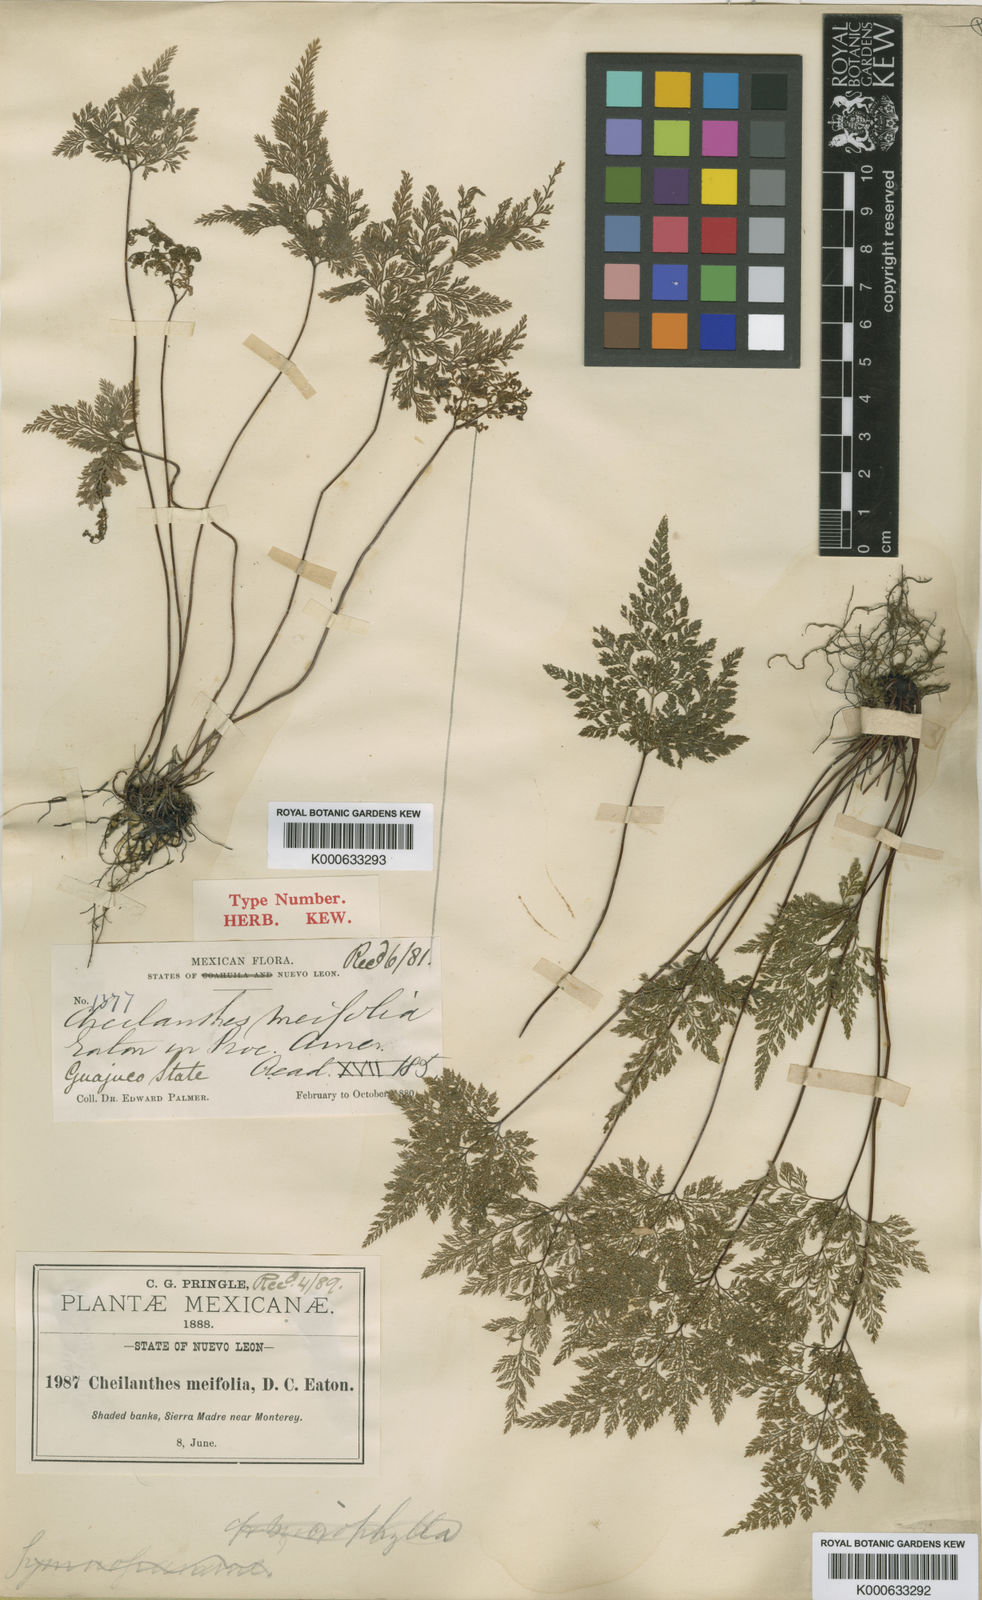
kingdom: Plantae
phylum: Tracheophyta
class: Polypodiopsida
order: Polypodiales
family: Pteridaceae
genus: Aspidotis
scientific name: Aspidotis meifolia
